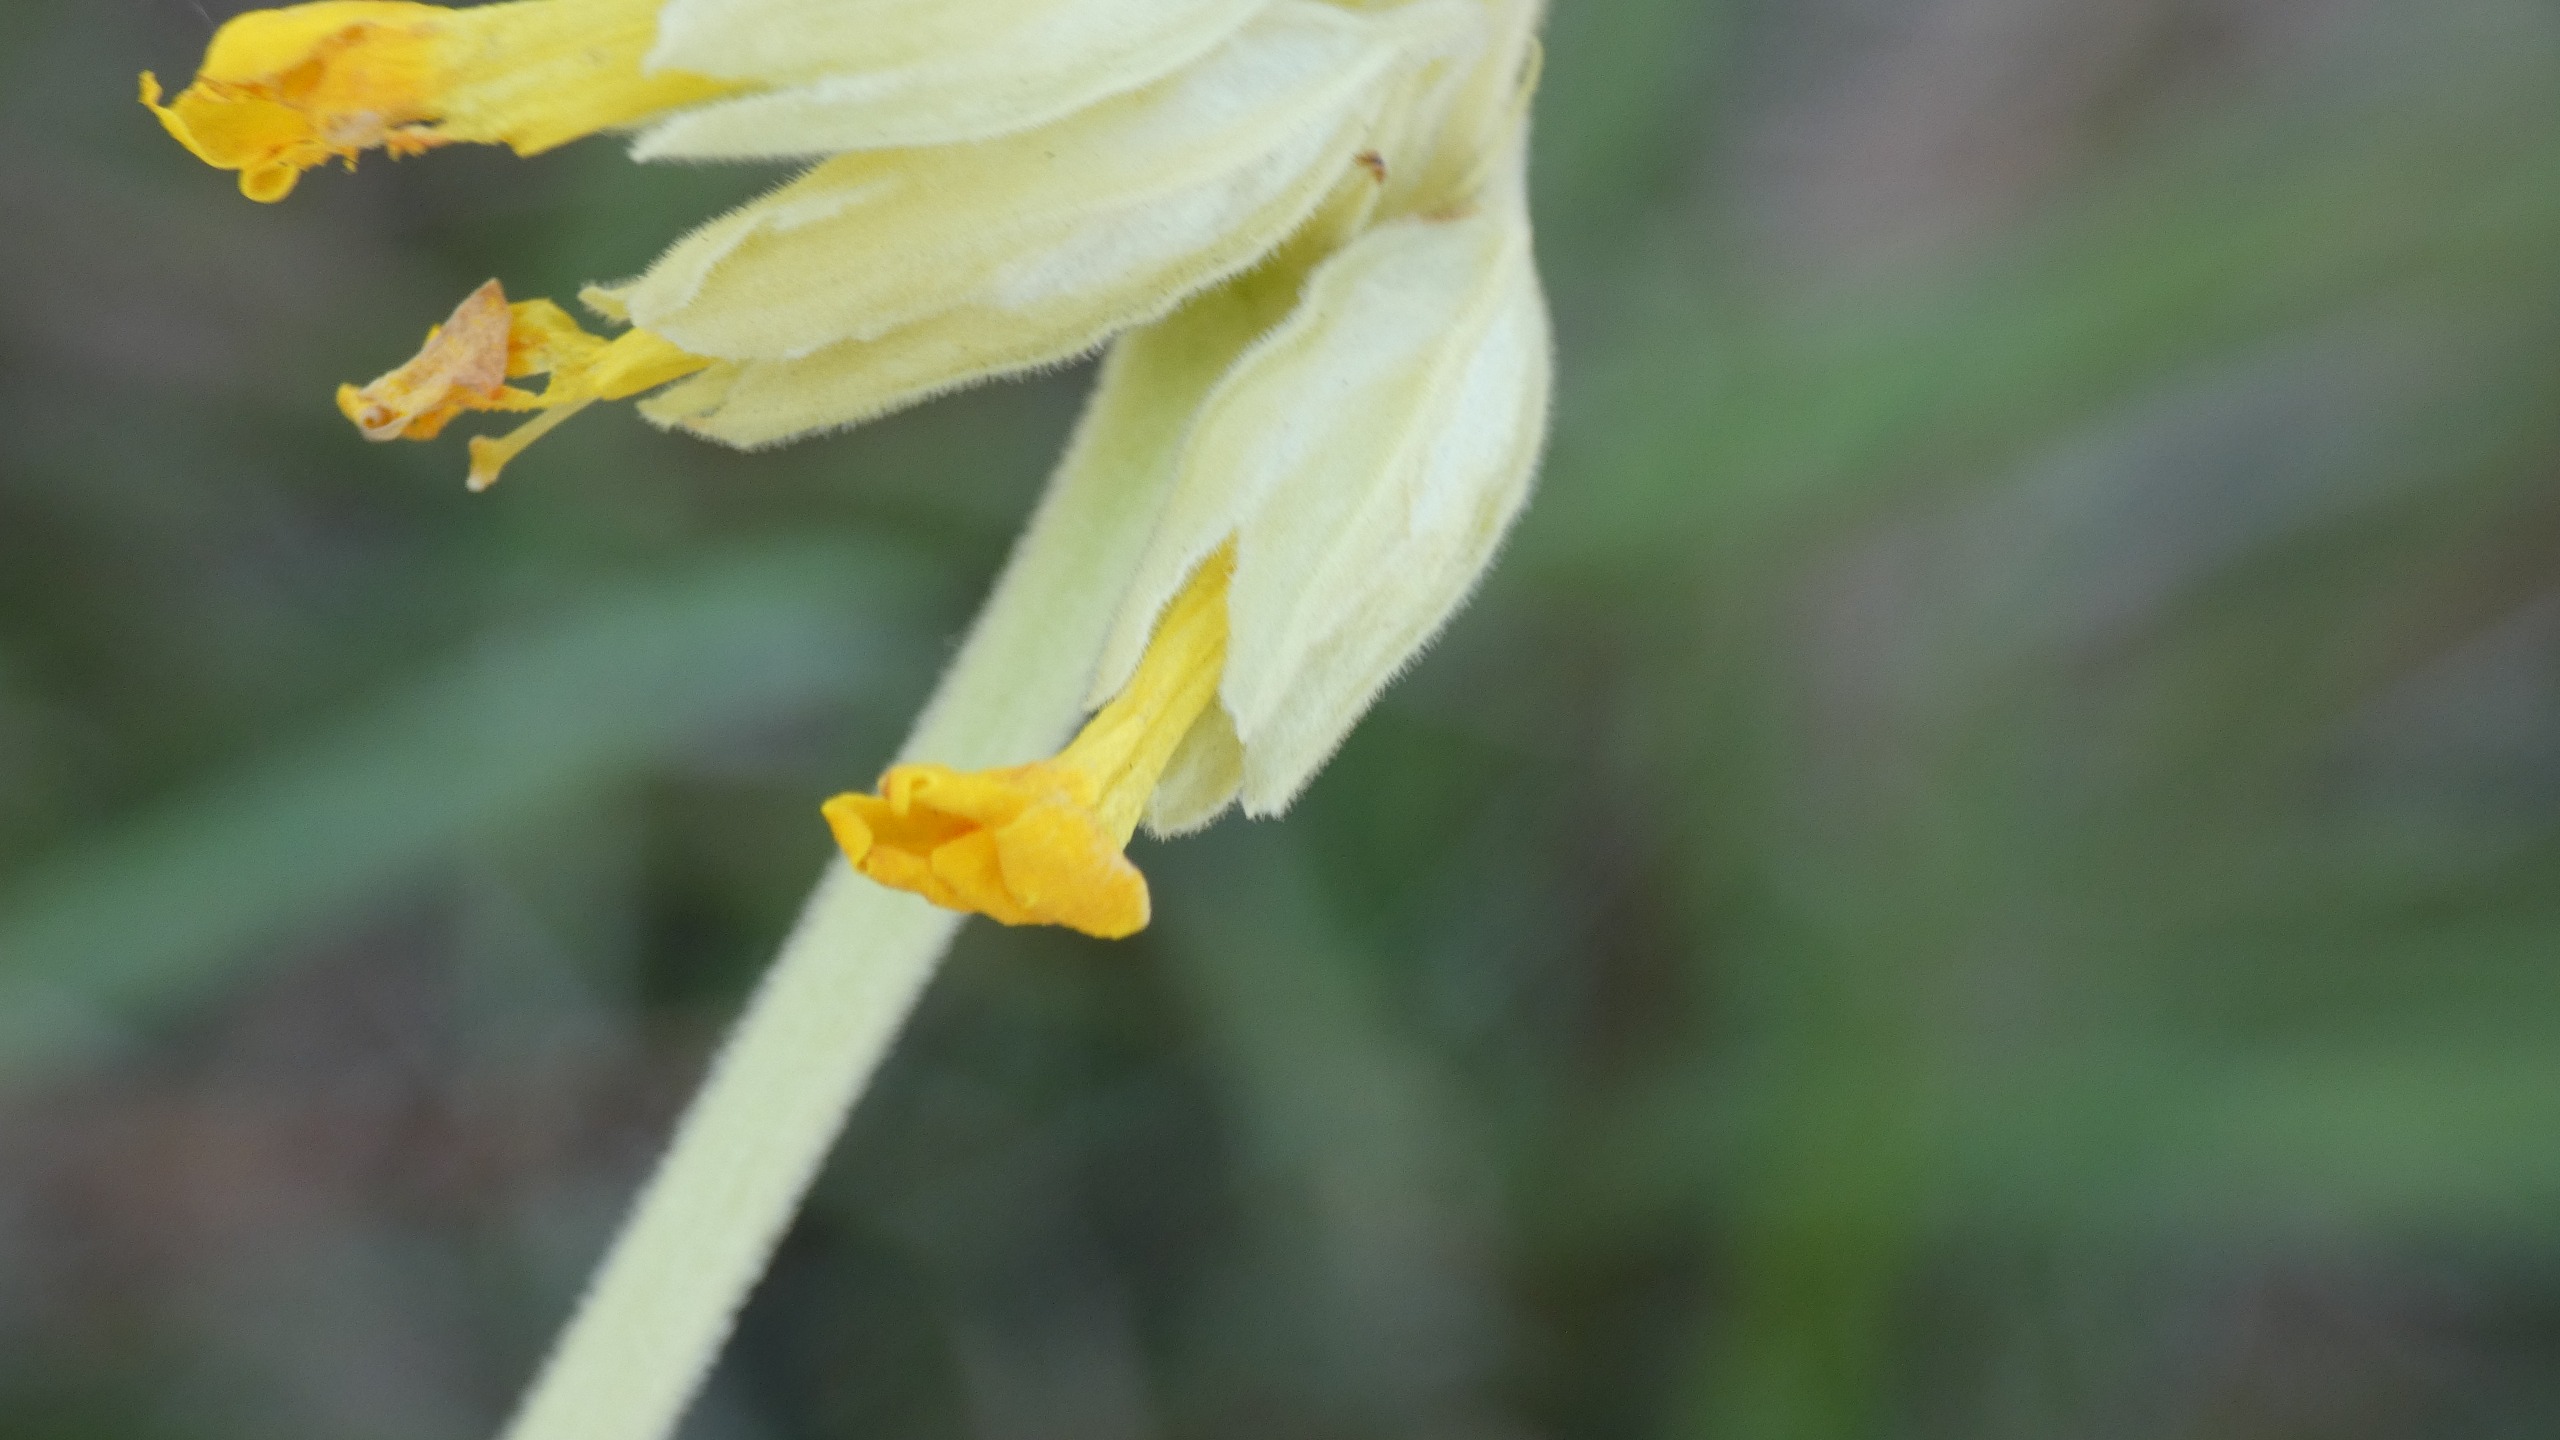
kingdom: Plantae
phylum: Tracheophyta
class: Magnoliopsida
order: Ericales
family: Primulaceae
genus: Primula
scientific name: Primula veris
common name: Hulkravet kodriver
